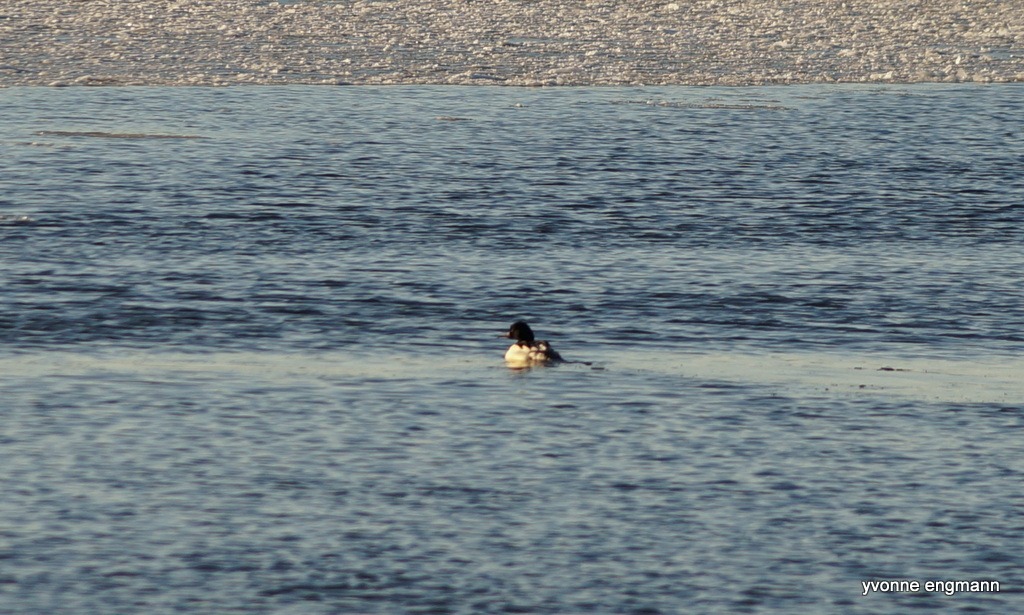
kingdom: Animalia
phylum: Chordata
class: Aves
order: Anseriformes
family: Anatidae
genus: Mergus
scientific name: Mergus merganser
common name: Stor skallesluger
